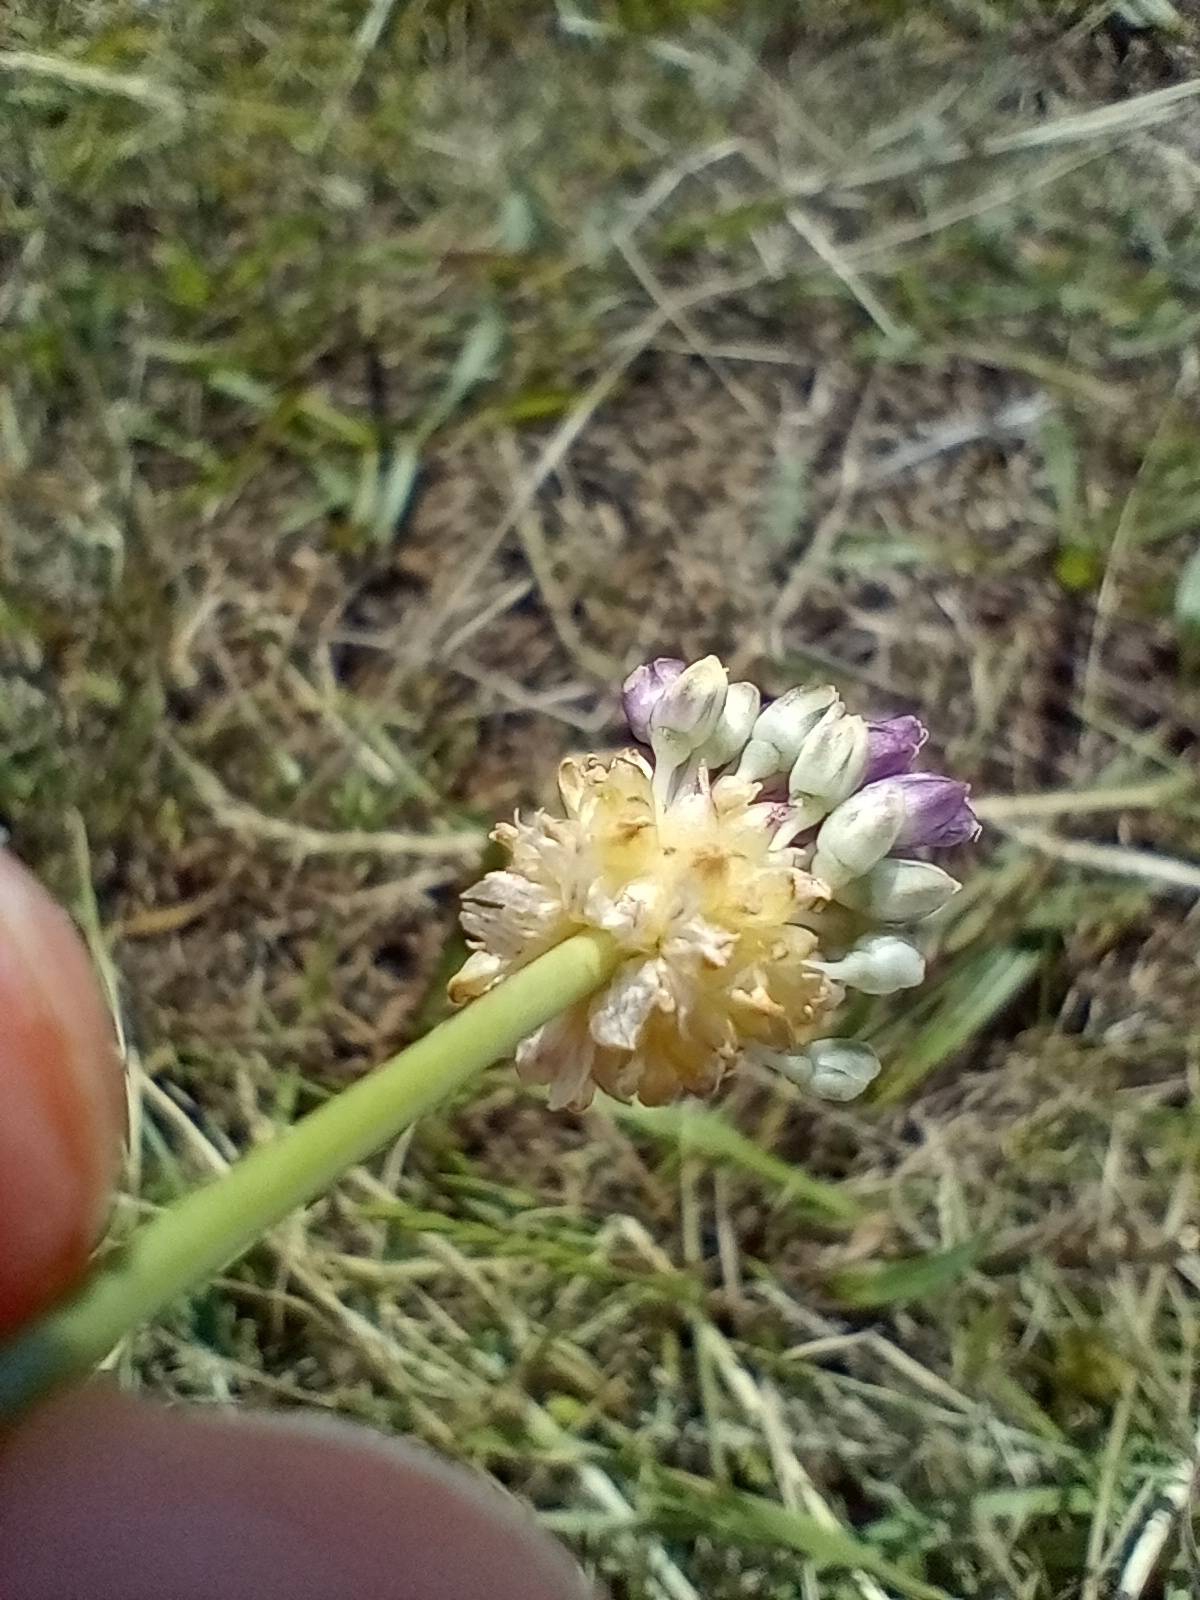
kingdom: Plantae
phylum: Tracheophyta
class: Liliopsida
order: Asparagales
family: Amaryllidaceae
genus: Allium
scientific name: Allium vineale
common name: Sand-løg
